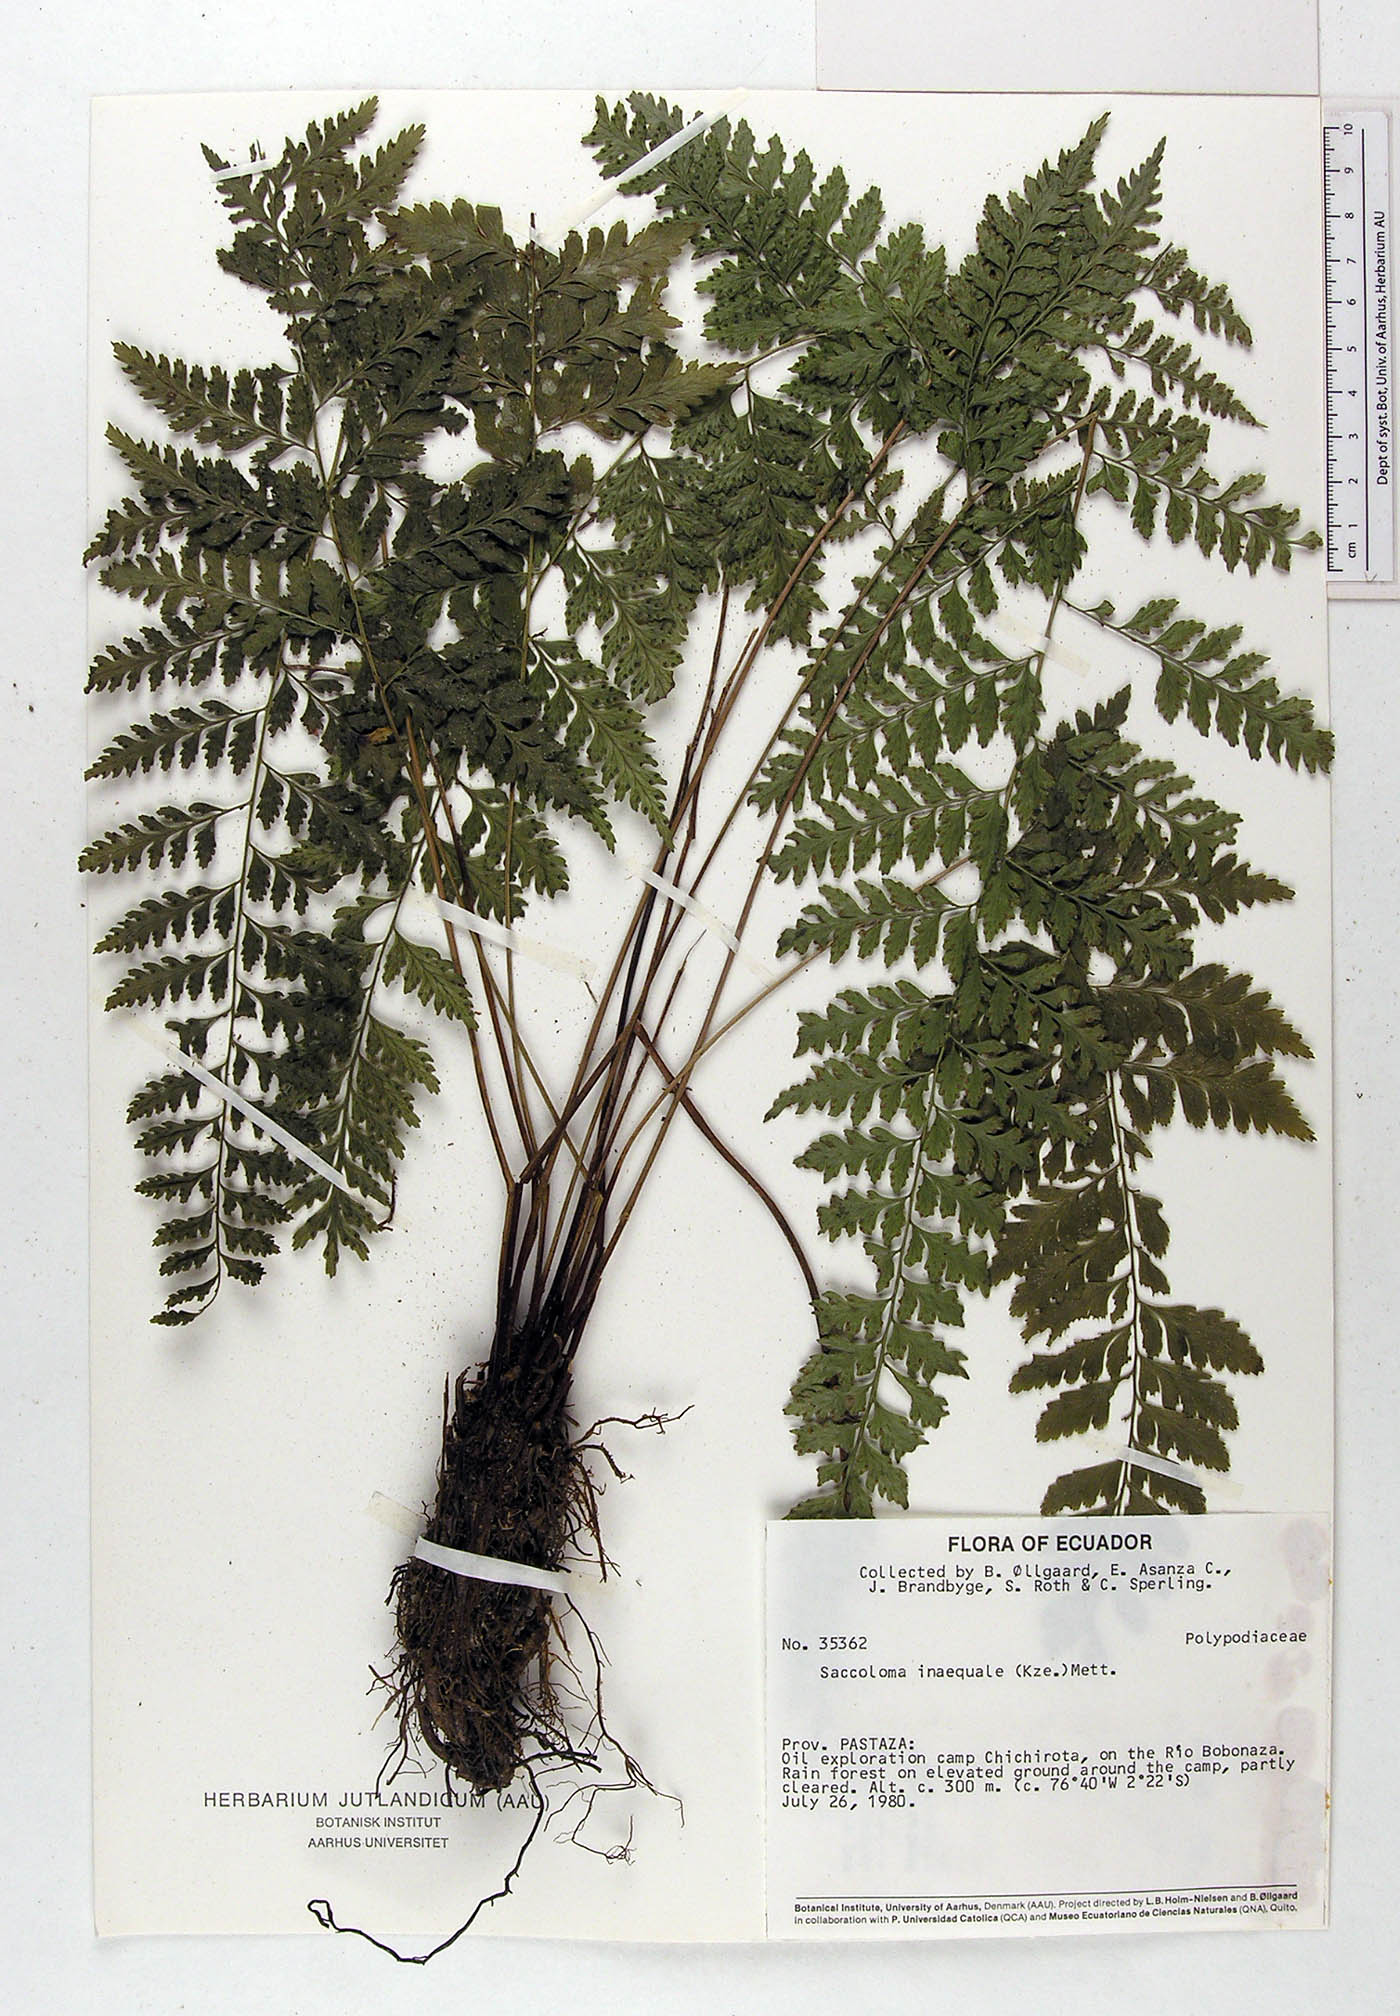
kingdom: Plantae
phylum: Tracheophyta
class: Polypodiopsida
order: Polypodiales
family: Saccolomataceae
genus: Saccoloma
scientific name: Saccoloma inaequale
